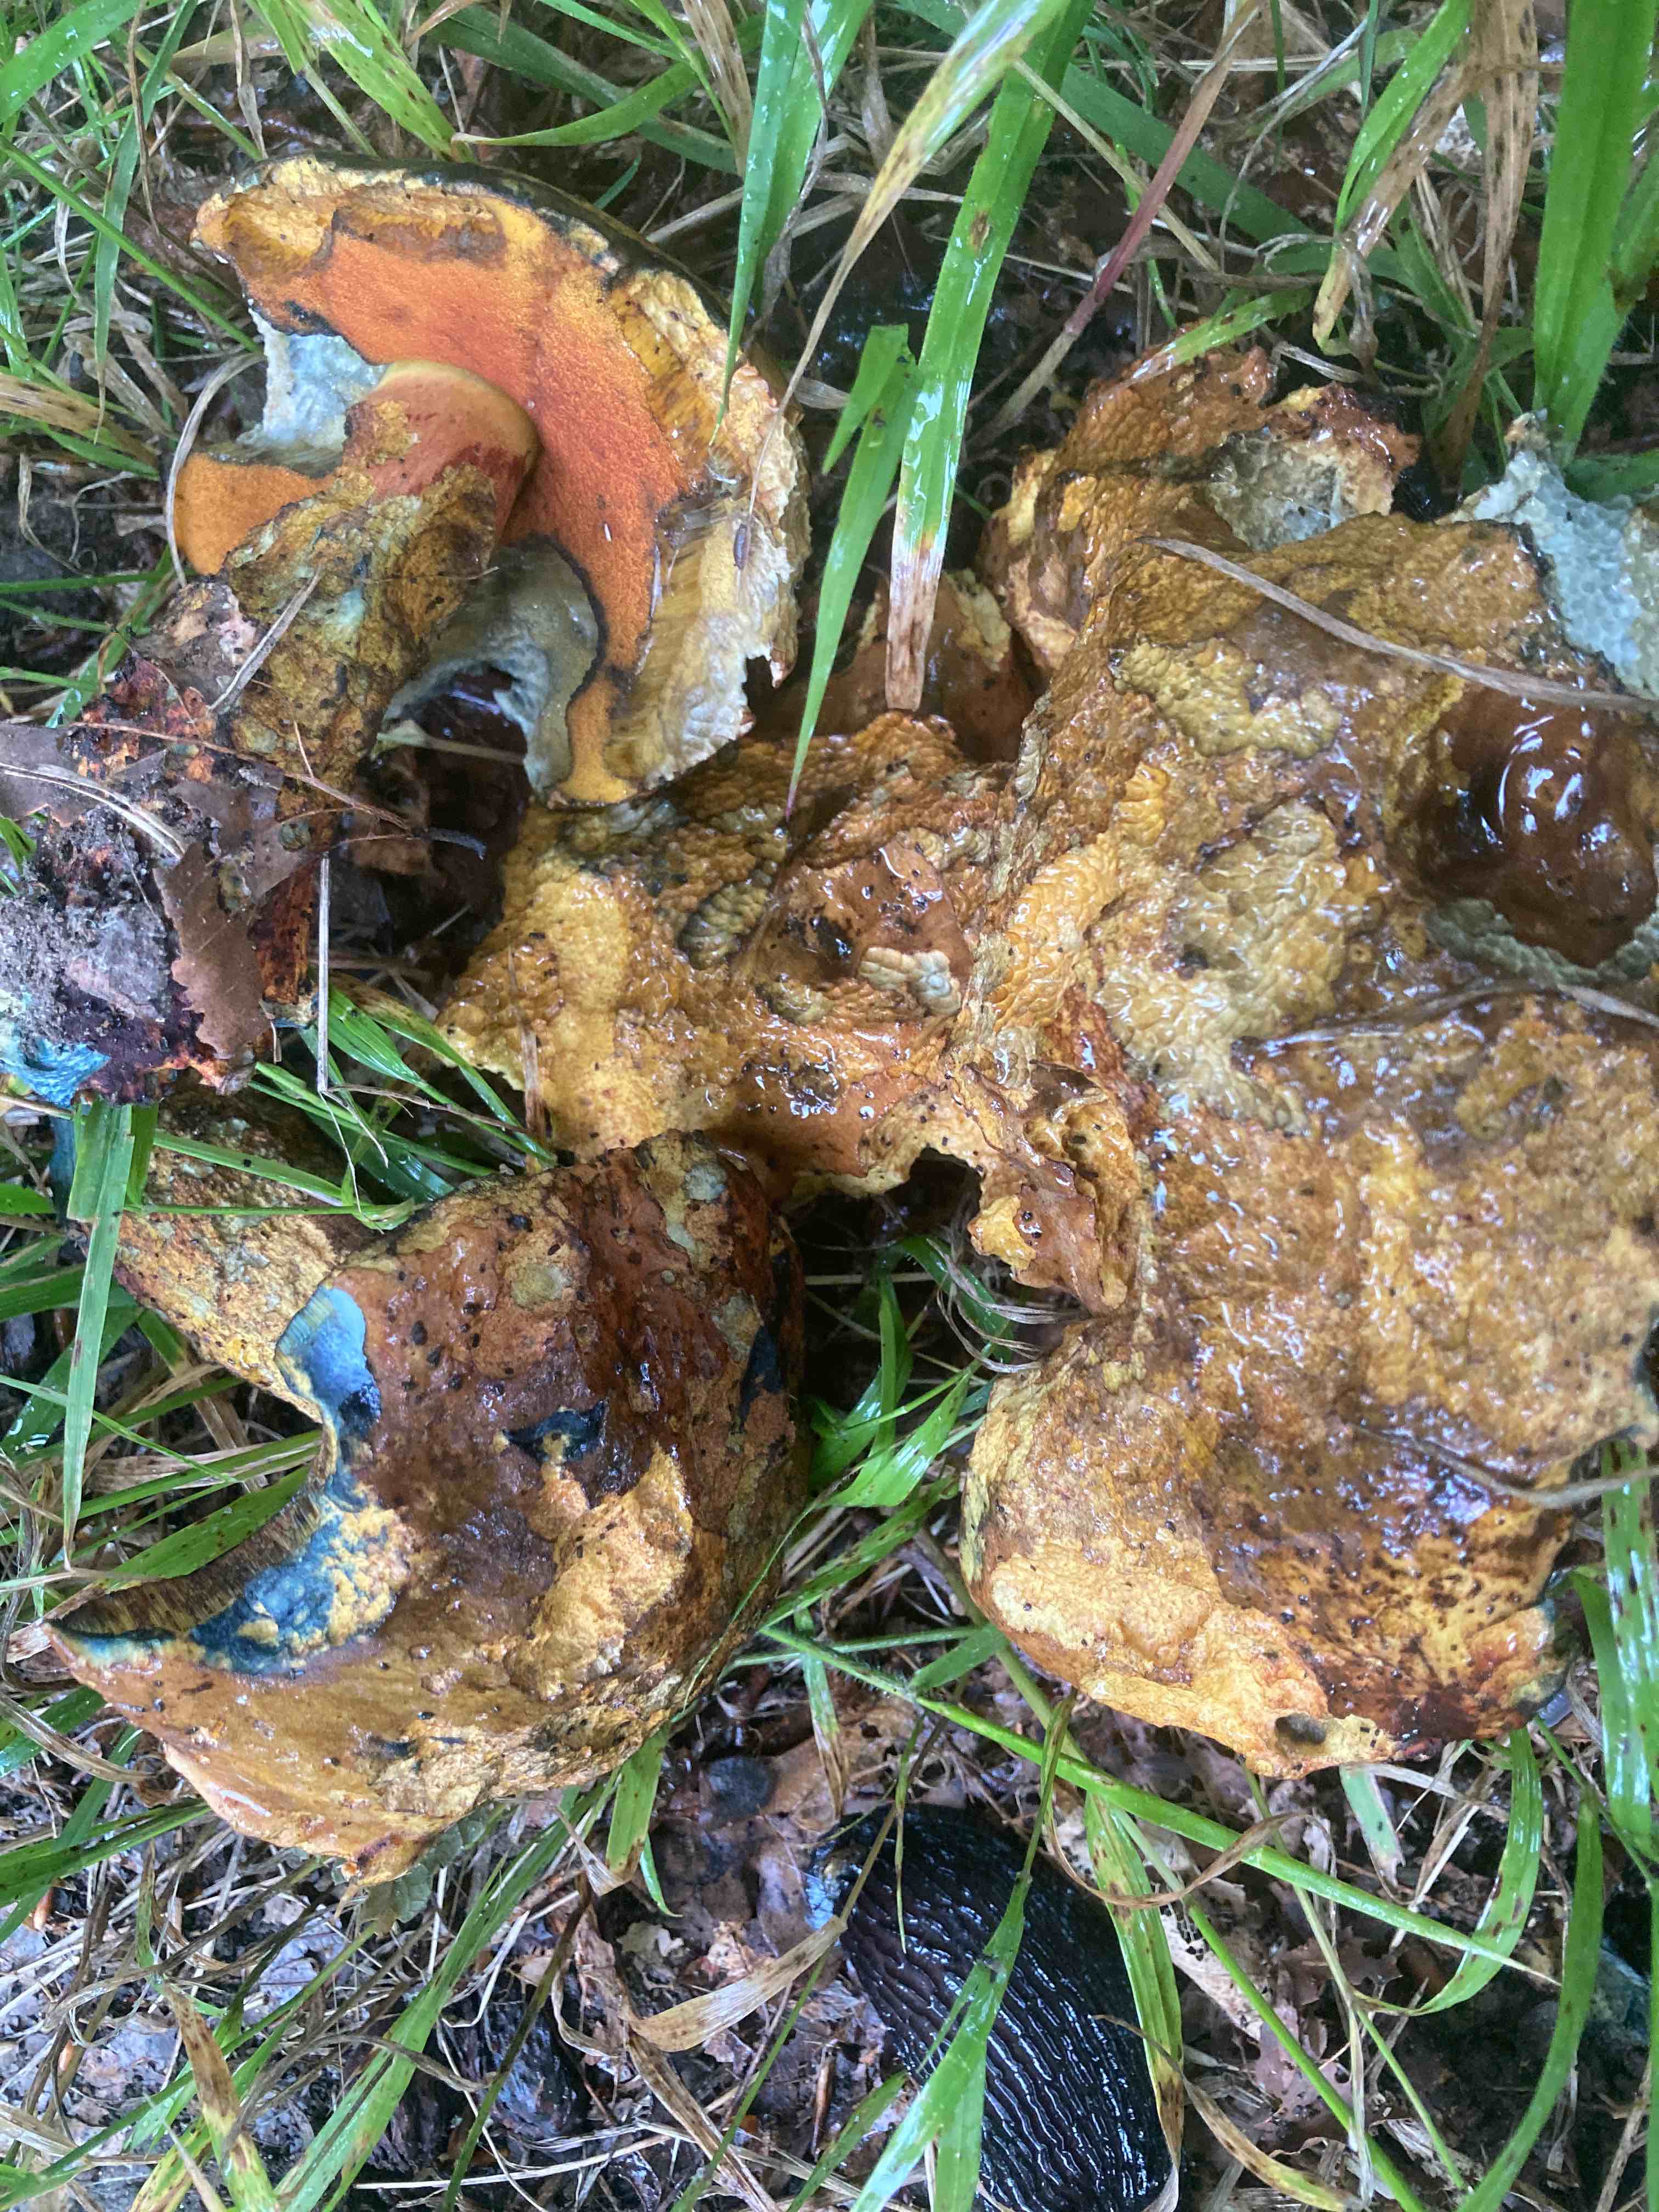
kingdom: Fungi
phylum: Basidiomycota
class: Agaricomycetes
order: Boletales
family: Boletaceae
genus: Neoboletus
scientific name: Neoboletus xanthopus
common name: finprikket indigorørhat
